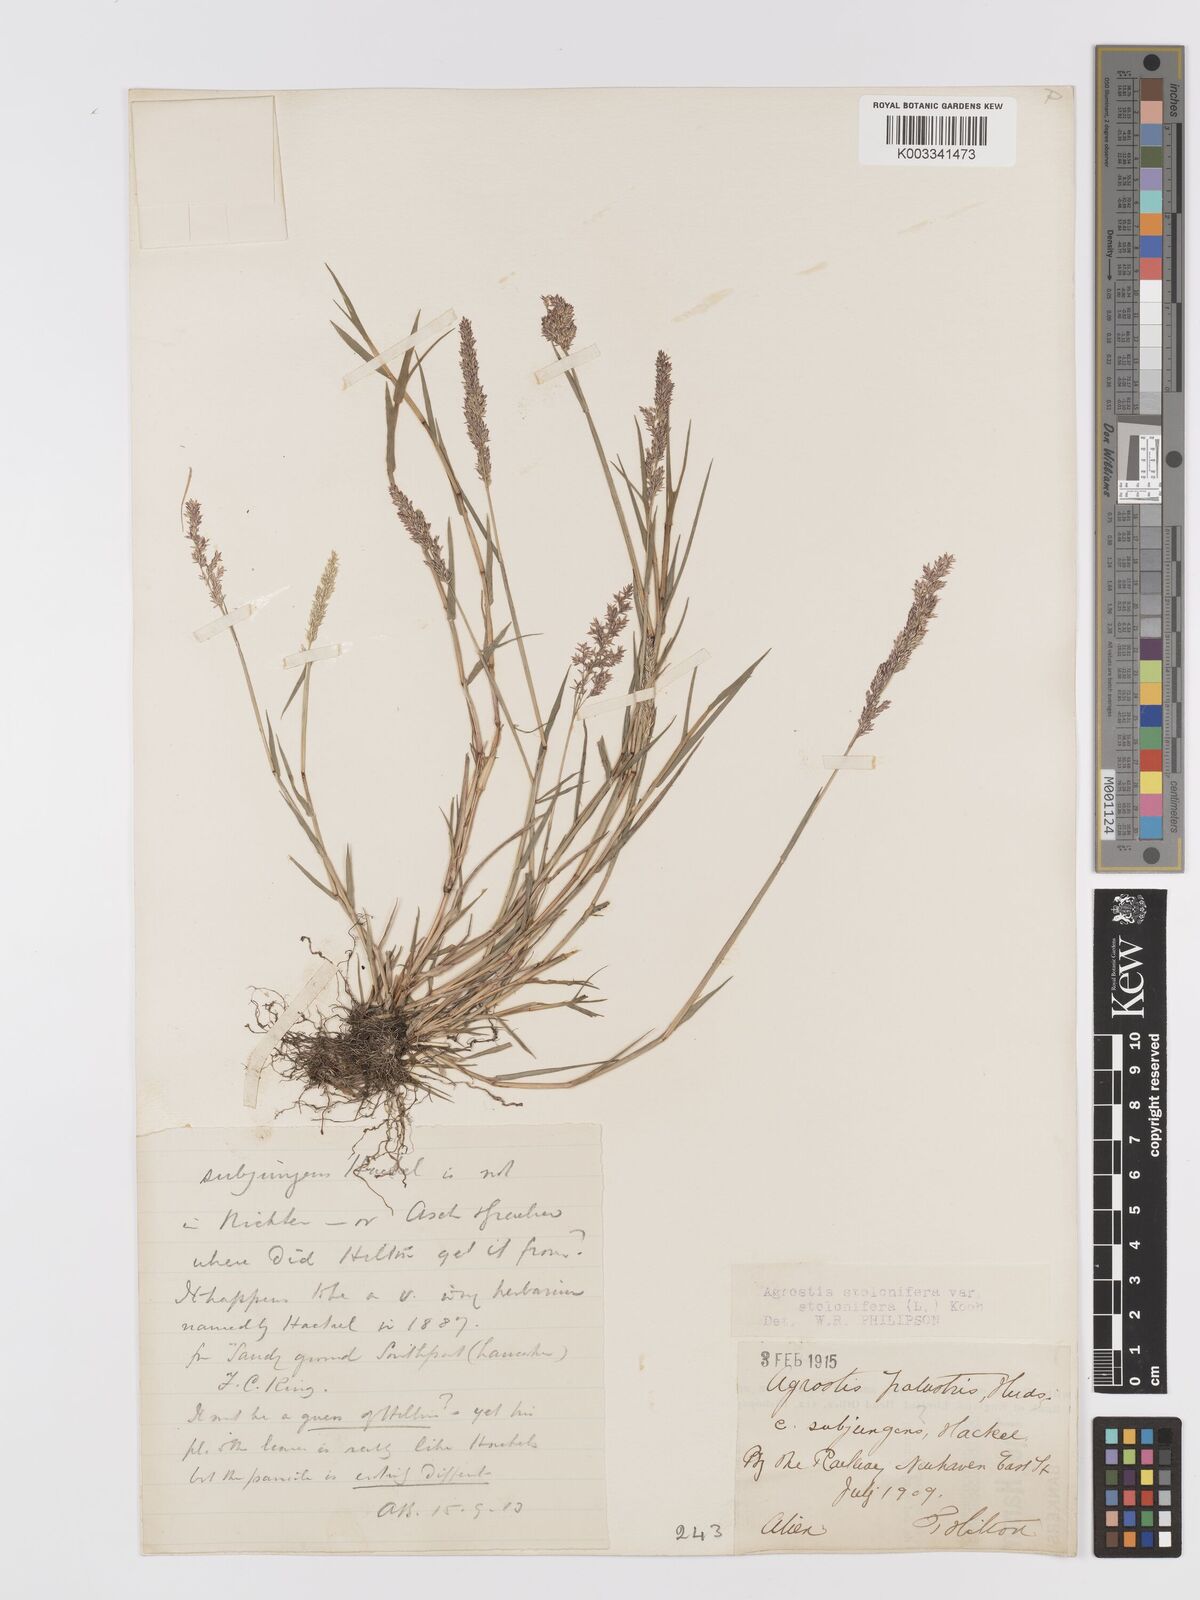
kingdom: Plantae
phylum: Tracheophyta
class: Liliopsida
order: Poales
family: Poaceae
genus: Agrostis
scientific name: Agrostis stolonifera
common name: Creeping bentgrass
